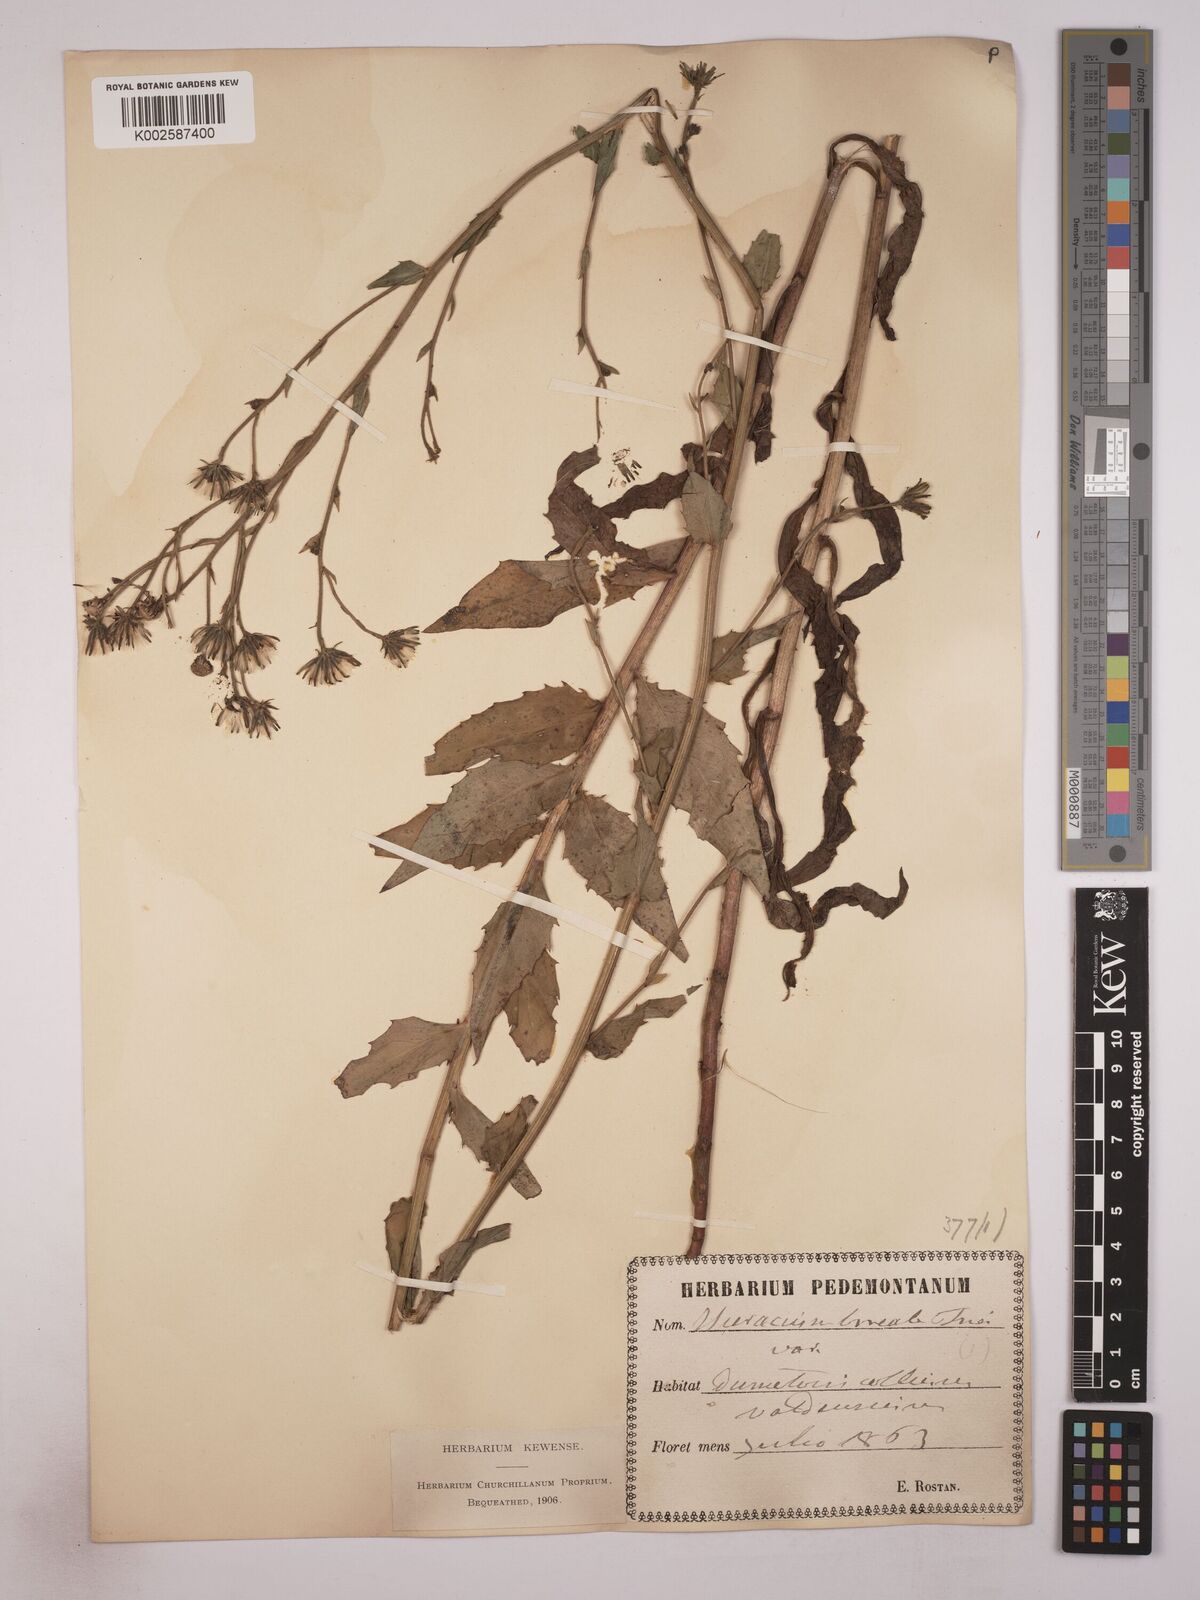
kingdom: Plantae
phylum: Tracheophyta
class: Magnoliopsida
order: Asterales
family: Asteraceae
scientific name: Asteraceae
